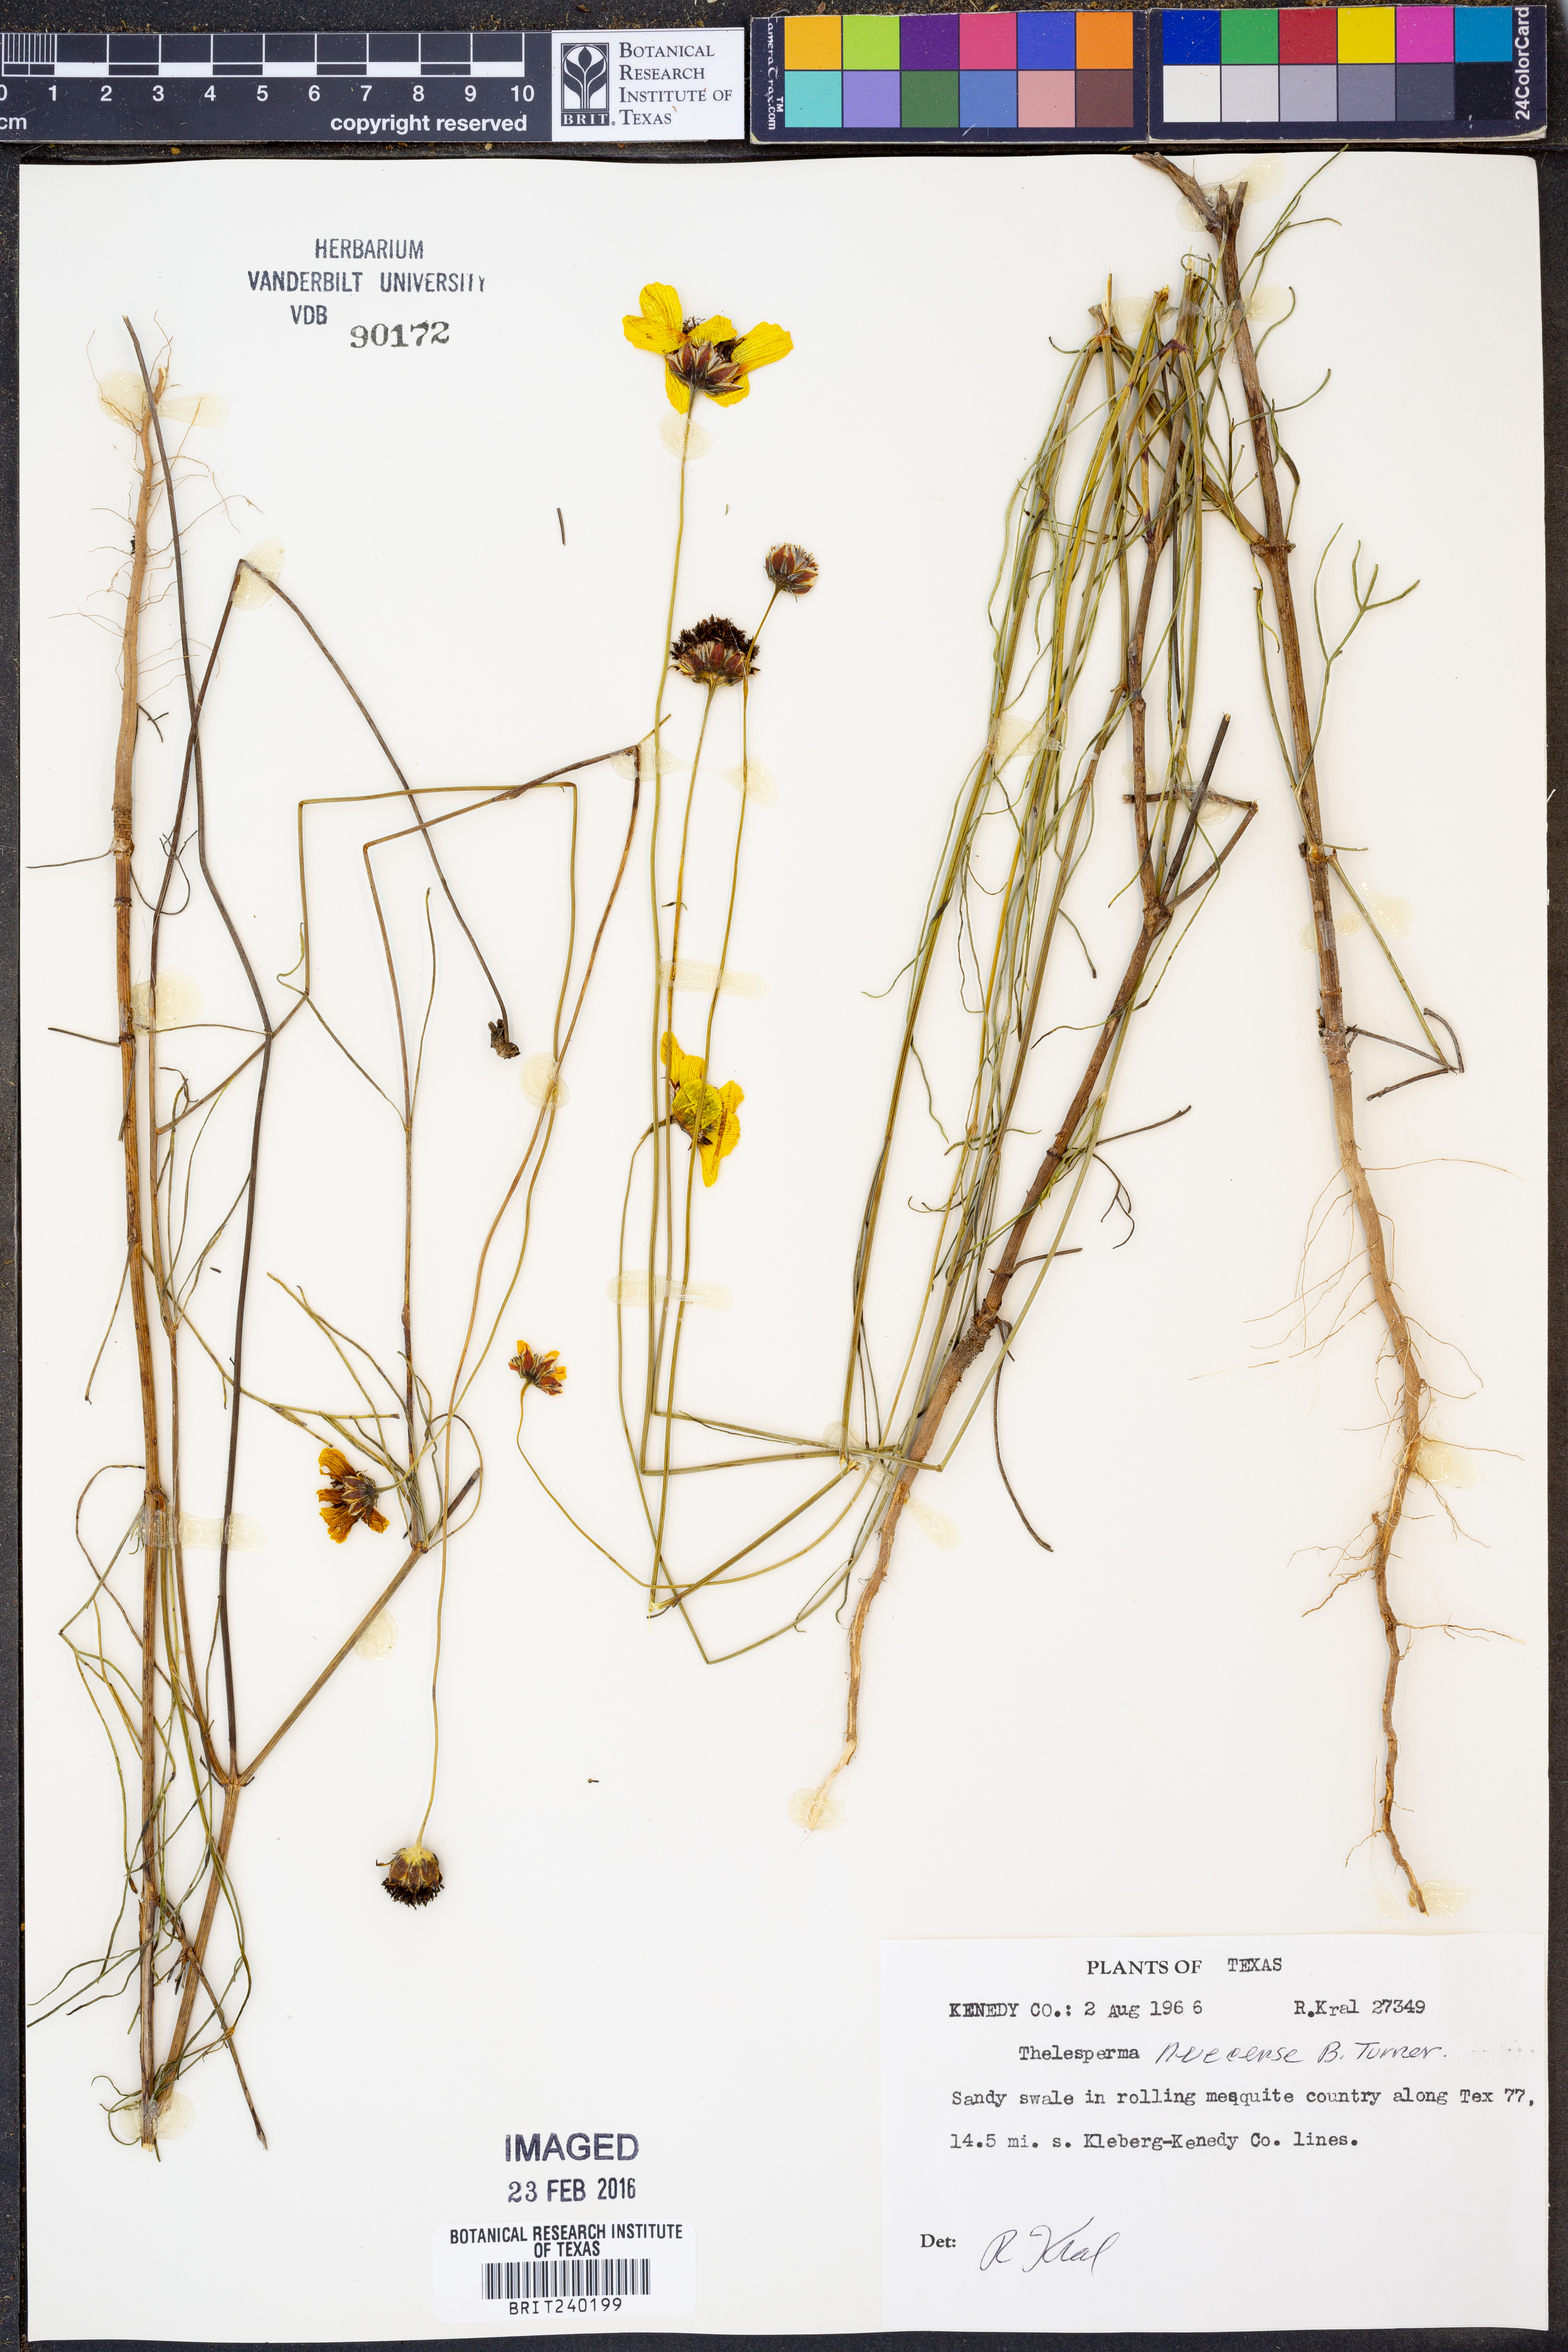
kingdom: Plantae
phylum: Tracheophyta
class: Magnoliopsida
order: Asterales
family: Asteraceae
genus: Thelesperma
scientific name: Thelesperma nuecense
